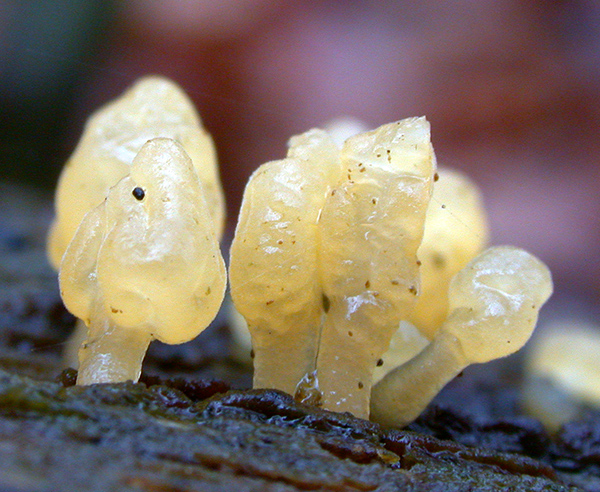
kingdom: Fungi
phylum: Basidiomycota
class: Dacrymycetes
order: Dacrymycetales
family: Dacrymycetaceae
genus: Calocera
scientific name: Calocera glossoides
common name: kølle-guldgaffel
